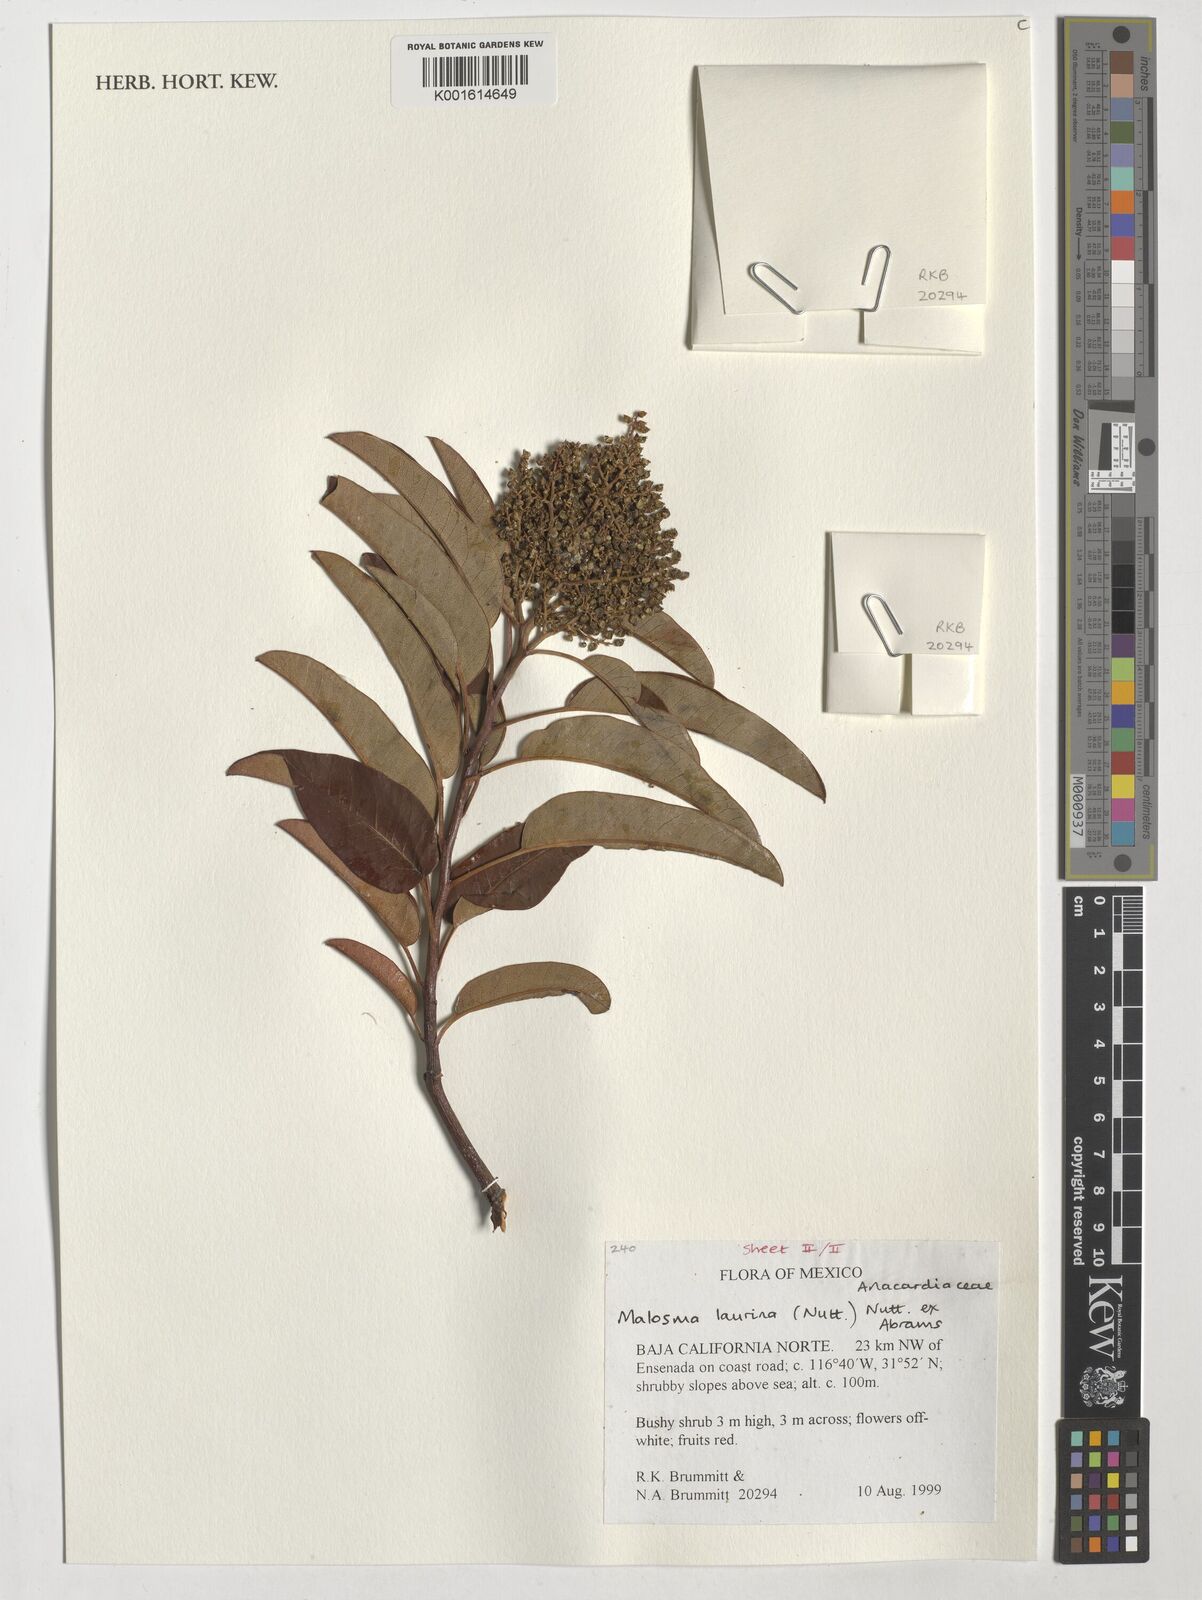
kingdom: Plantae
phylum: Tracheophyta
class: Magnoliopsida
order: Sapindales
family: Anacardiaceae
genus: Malosma
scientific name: Malosma laurina
